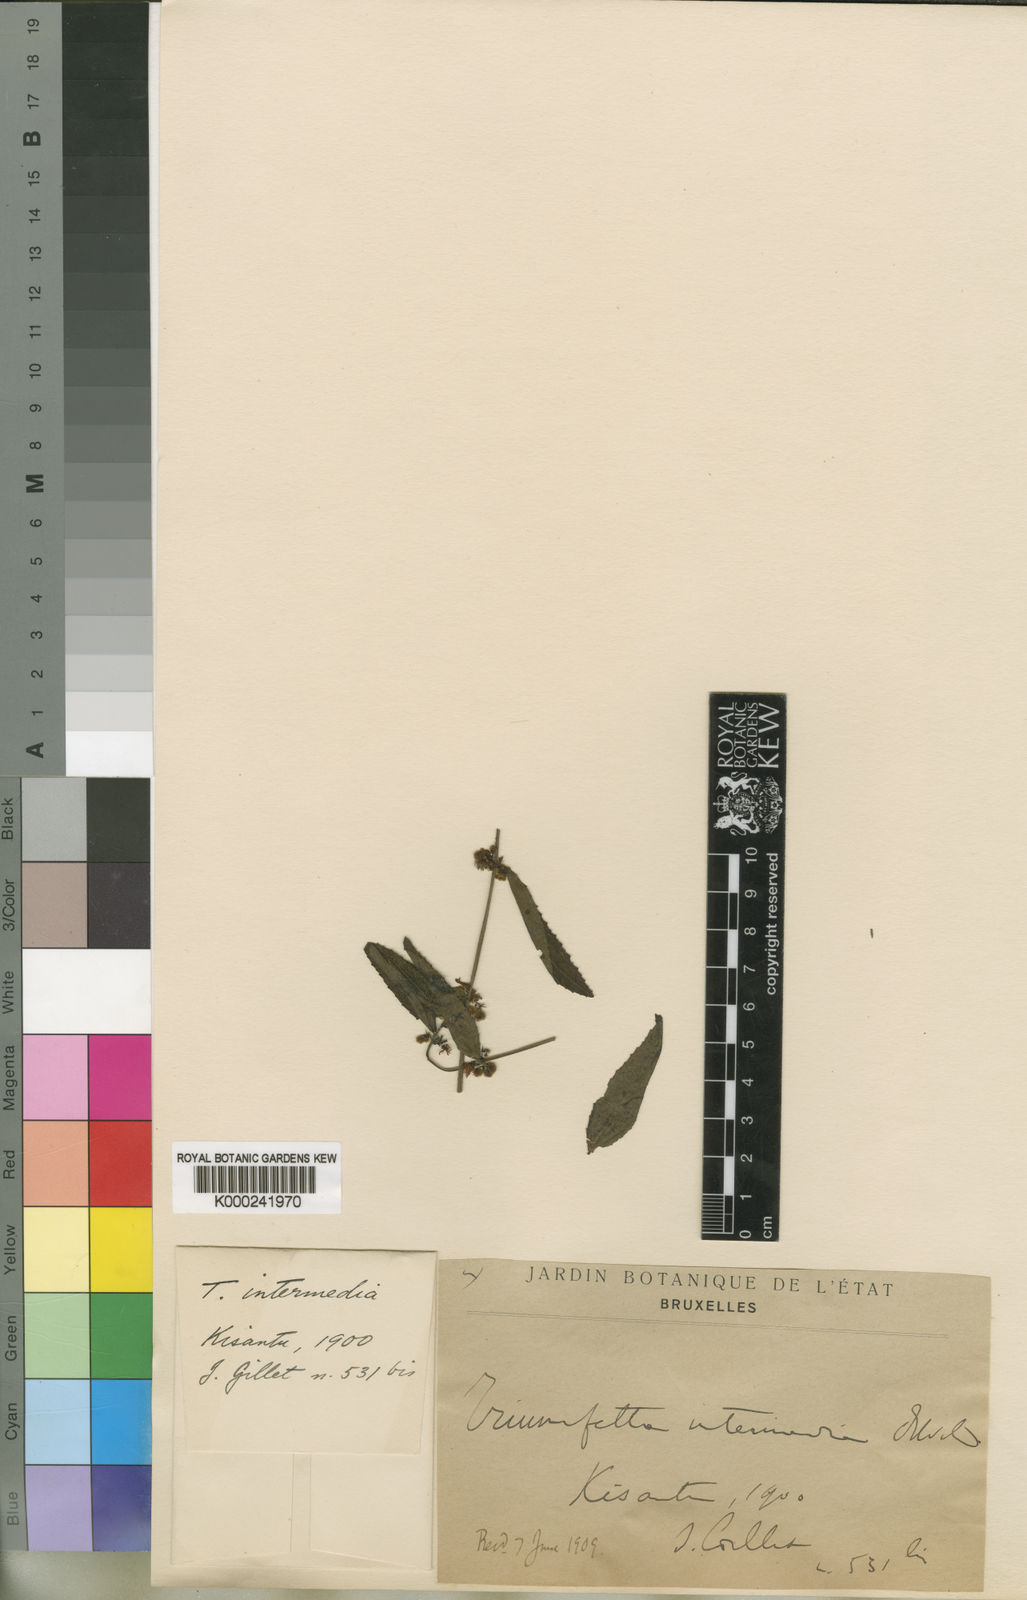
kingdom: Plantae
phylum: Tracheophyta
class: Magnoliopsida
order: Malvales
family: Malvaceae
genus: Triumfetta
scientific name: Triumfetta setulosa
